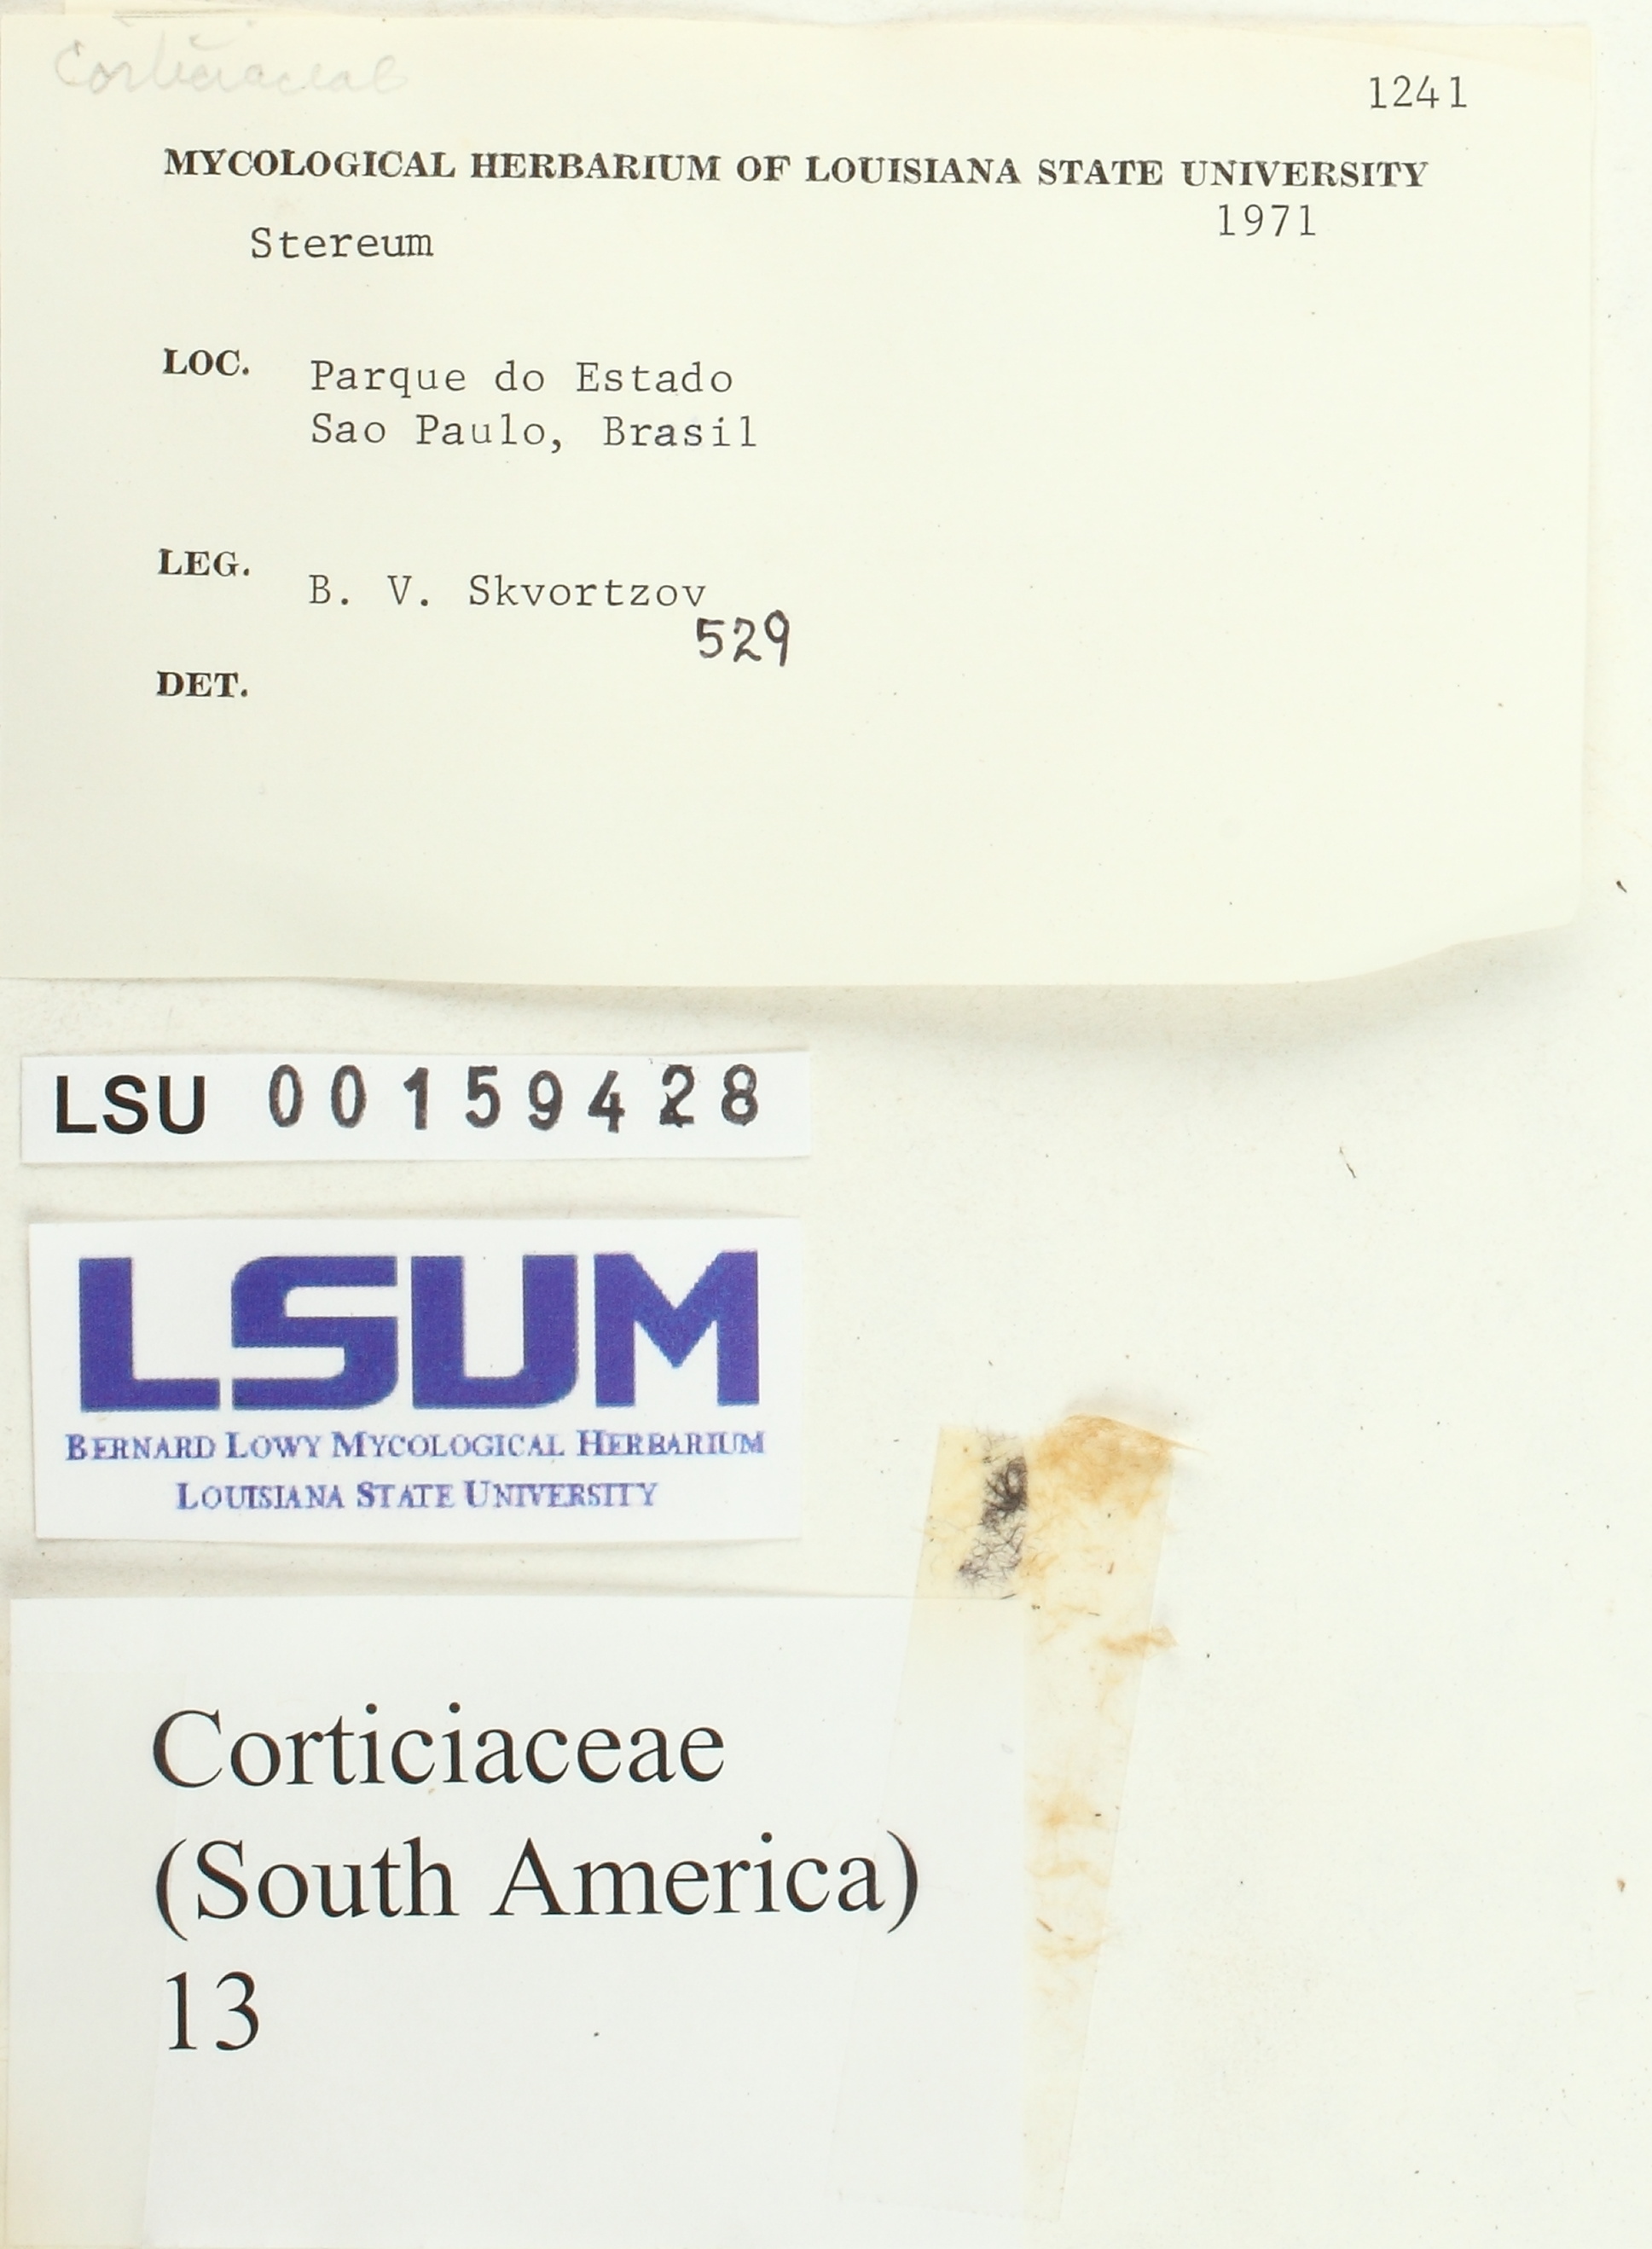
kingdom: Fungi
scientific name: Fungi
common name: Fungi
